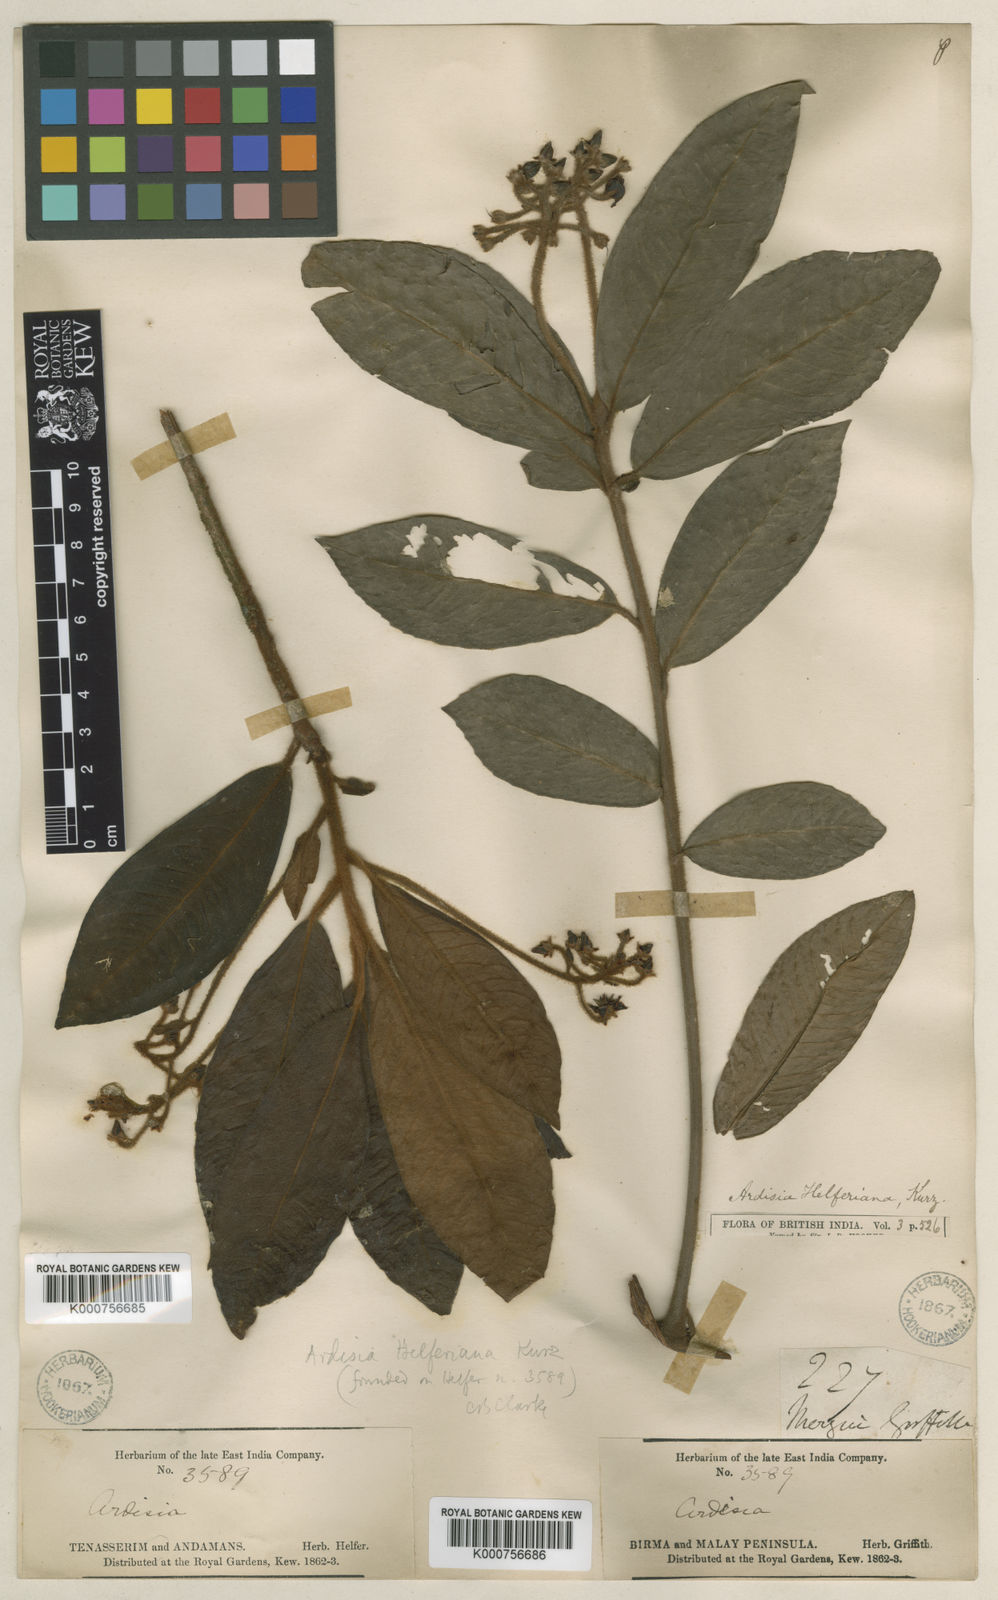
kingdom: Plantae
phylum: Tracheophyta
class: Magnoliopsida
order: Ericales
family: Primulaceae
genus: Ardisia
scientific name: Ardisia helferiana
